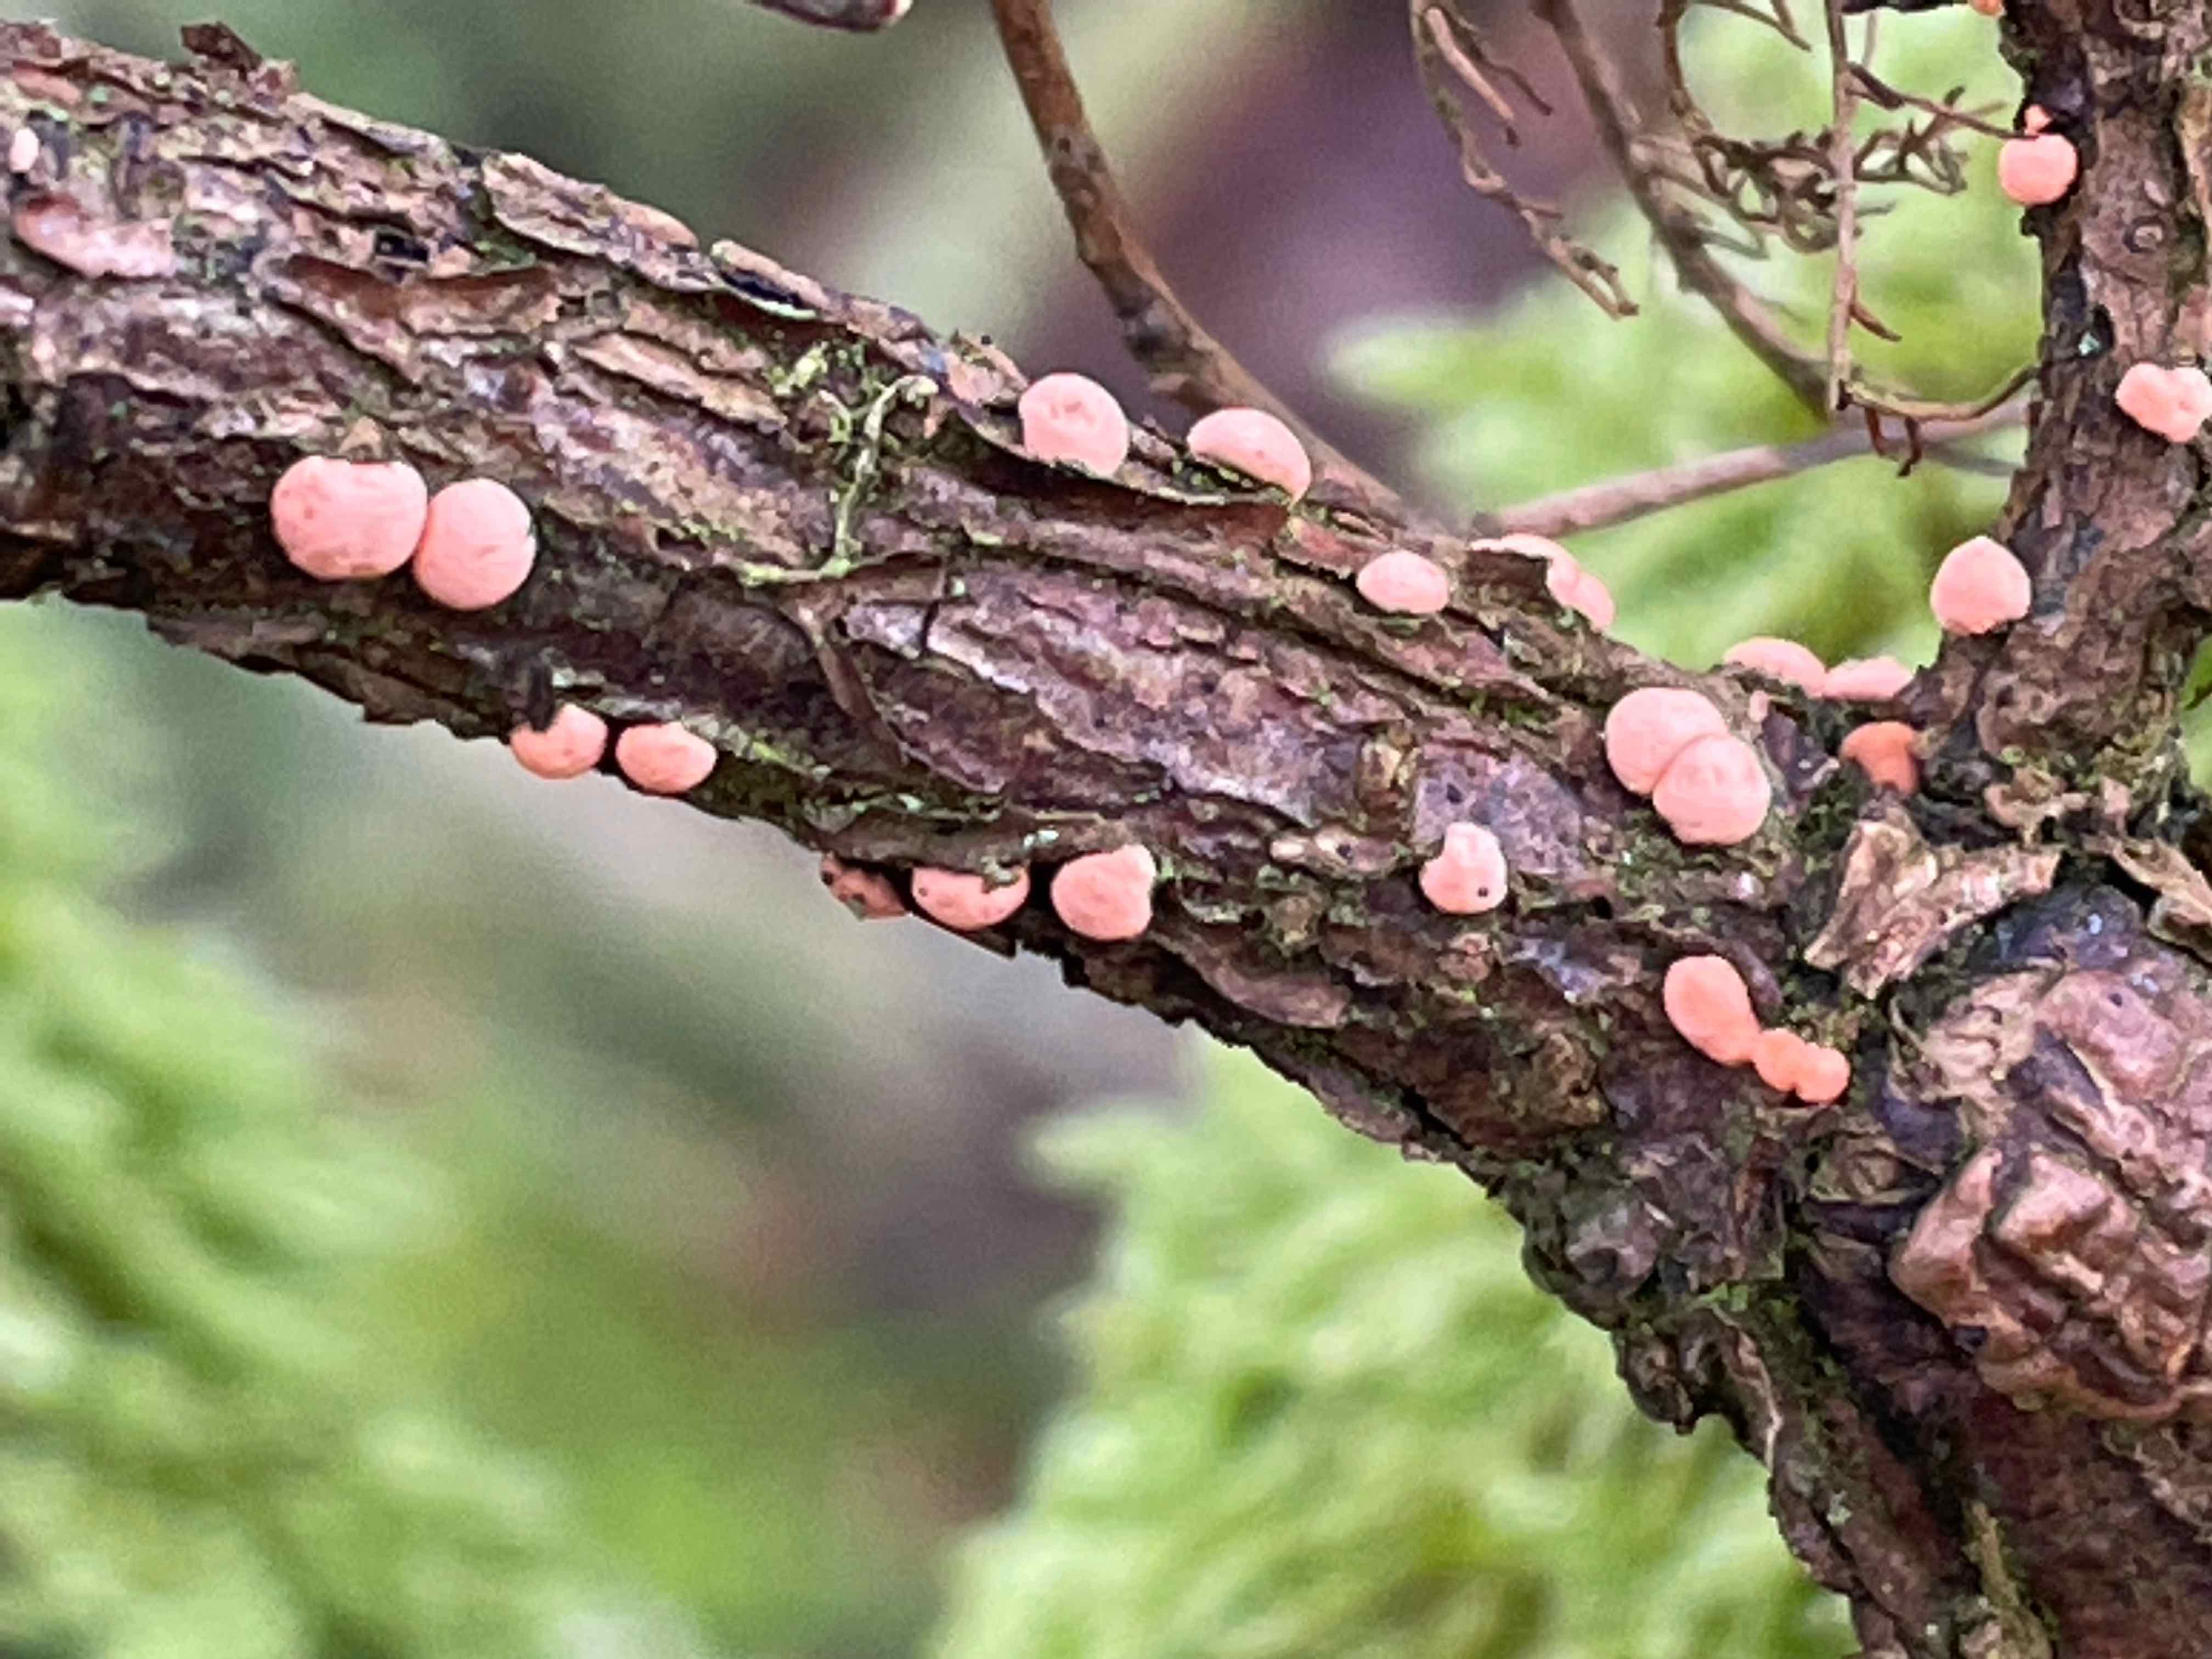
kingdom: Fungi
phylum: Ascomycota
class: Sordariomycetes
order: Hypocreales
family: Nectriaceae
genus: Nectria
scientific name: Nectria cinnabarina
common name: almindelig cinnobersvamp
